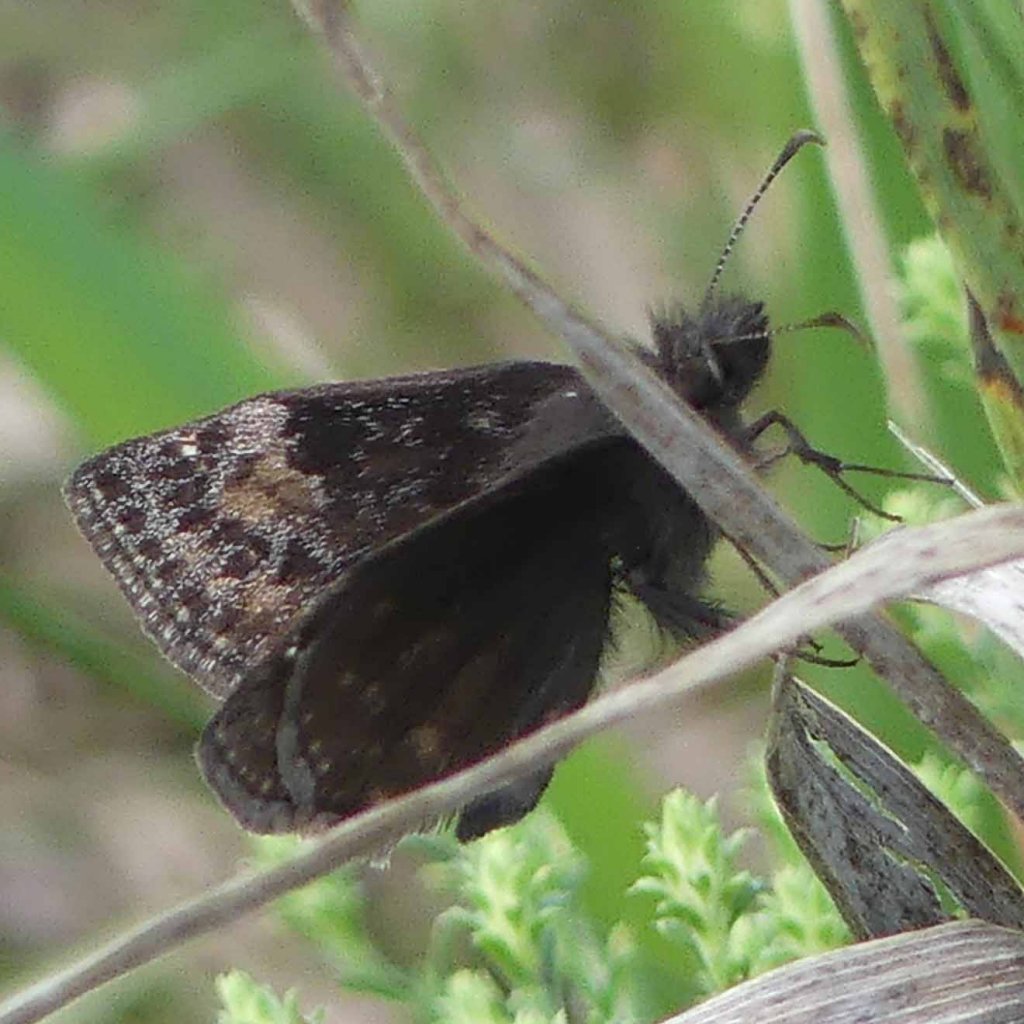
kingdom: Animalia
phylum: Arthropoda
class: Insecta
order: Lepidoptera
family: Hesperiidae
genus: Gesta
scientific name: Gesta
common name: Wild Indigo Duskywing
